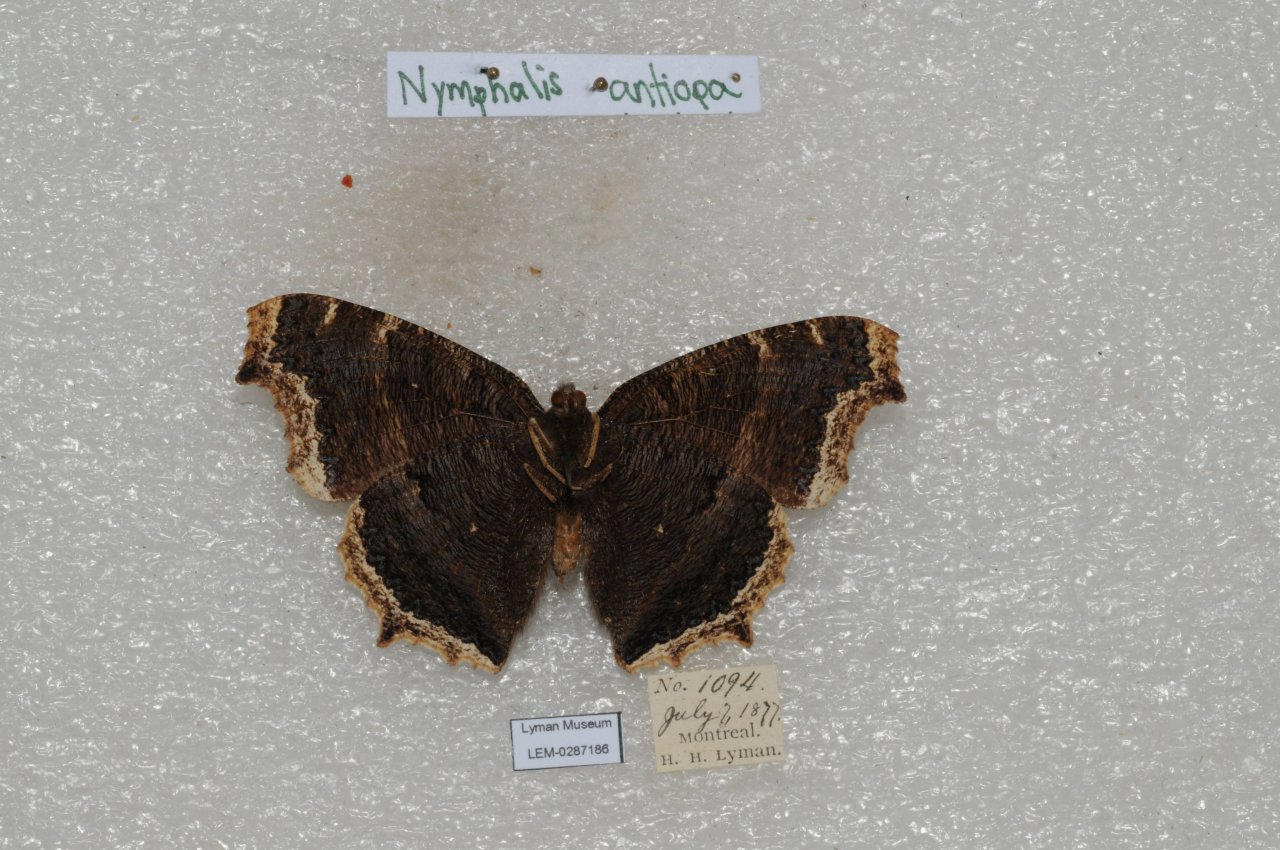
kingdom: Animalia
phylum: Arthropoda
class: Insecta
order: Lepidoptera
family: Nymphalidae
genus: Nymphalis
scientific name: Nymphalis antiopa
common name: Mourning Cloak
